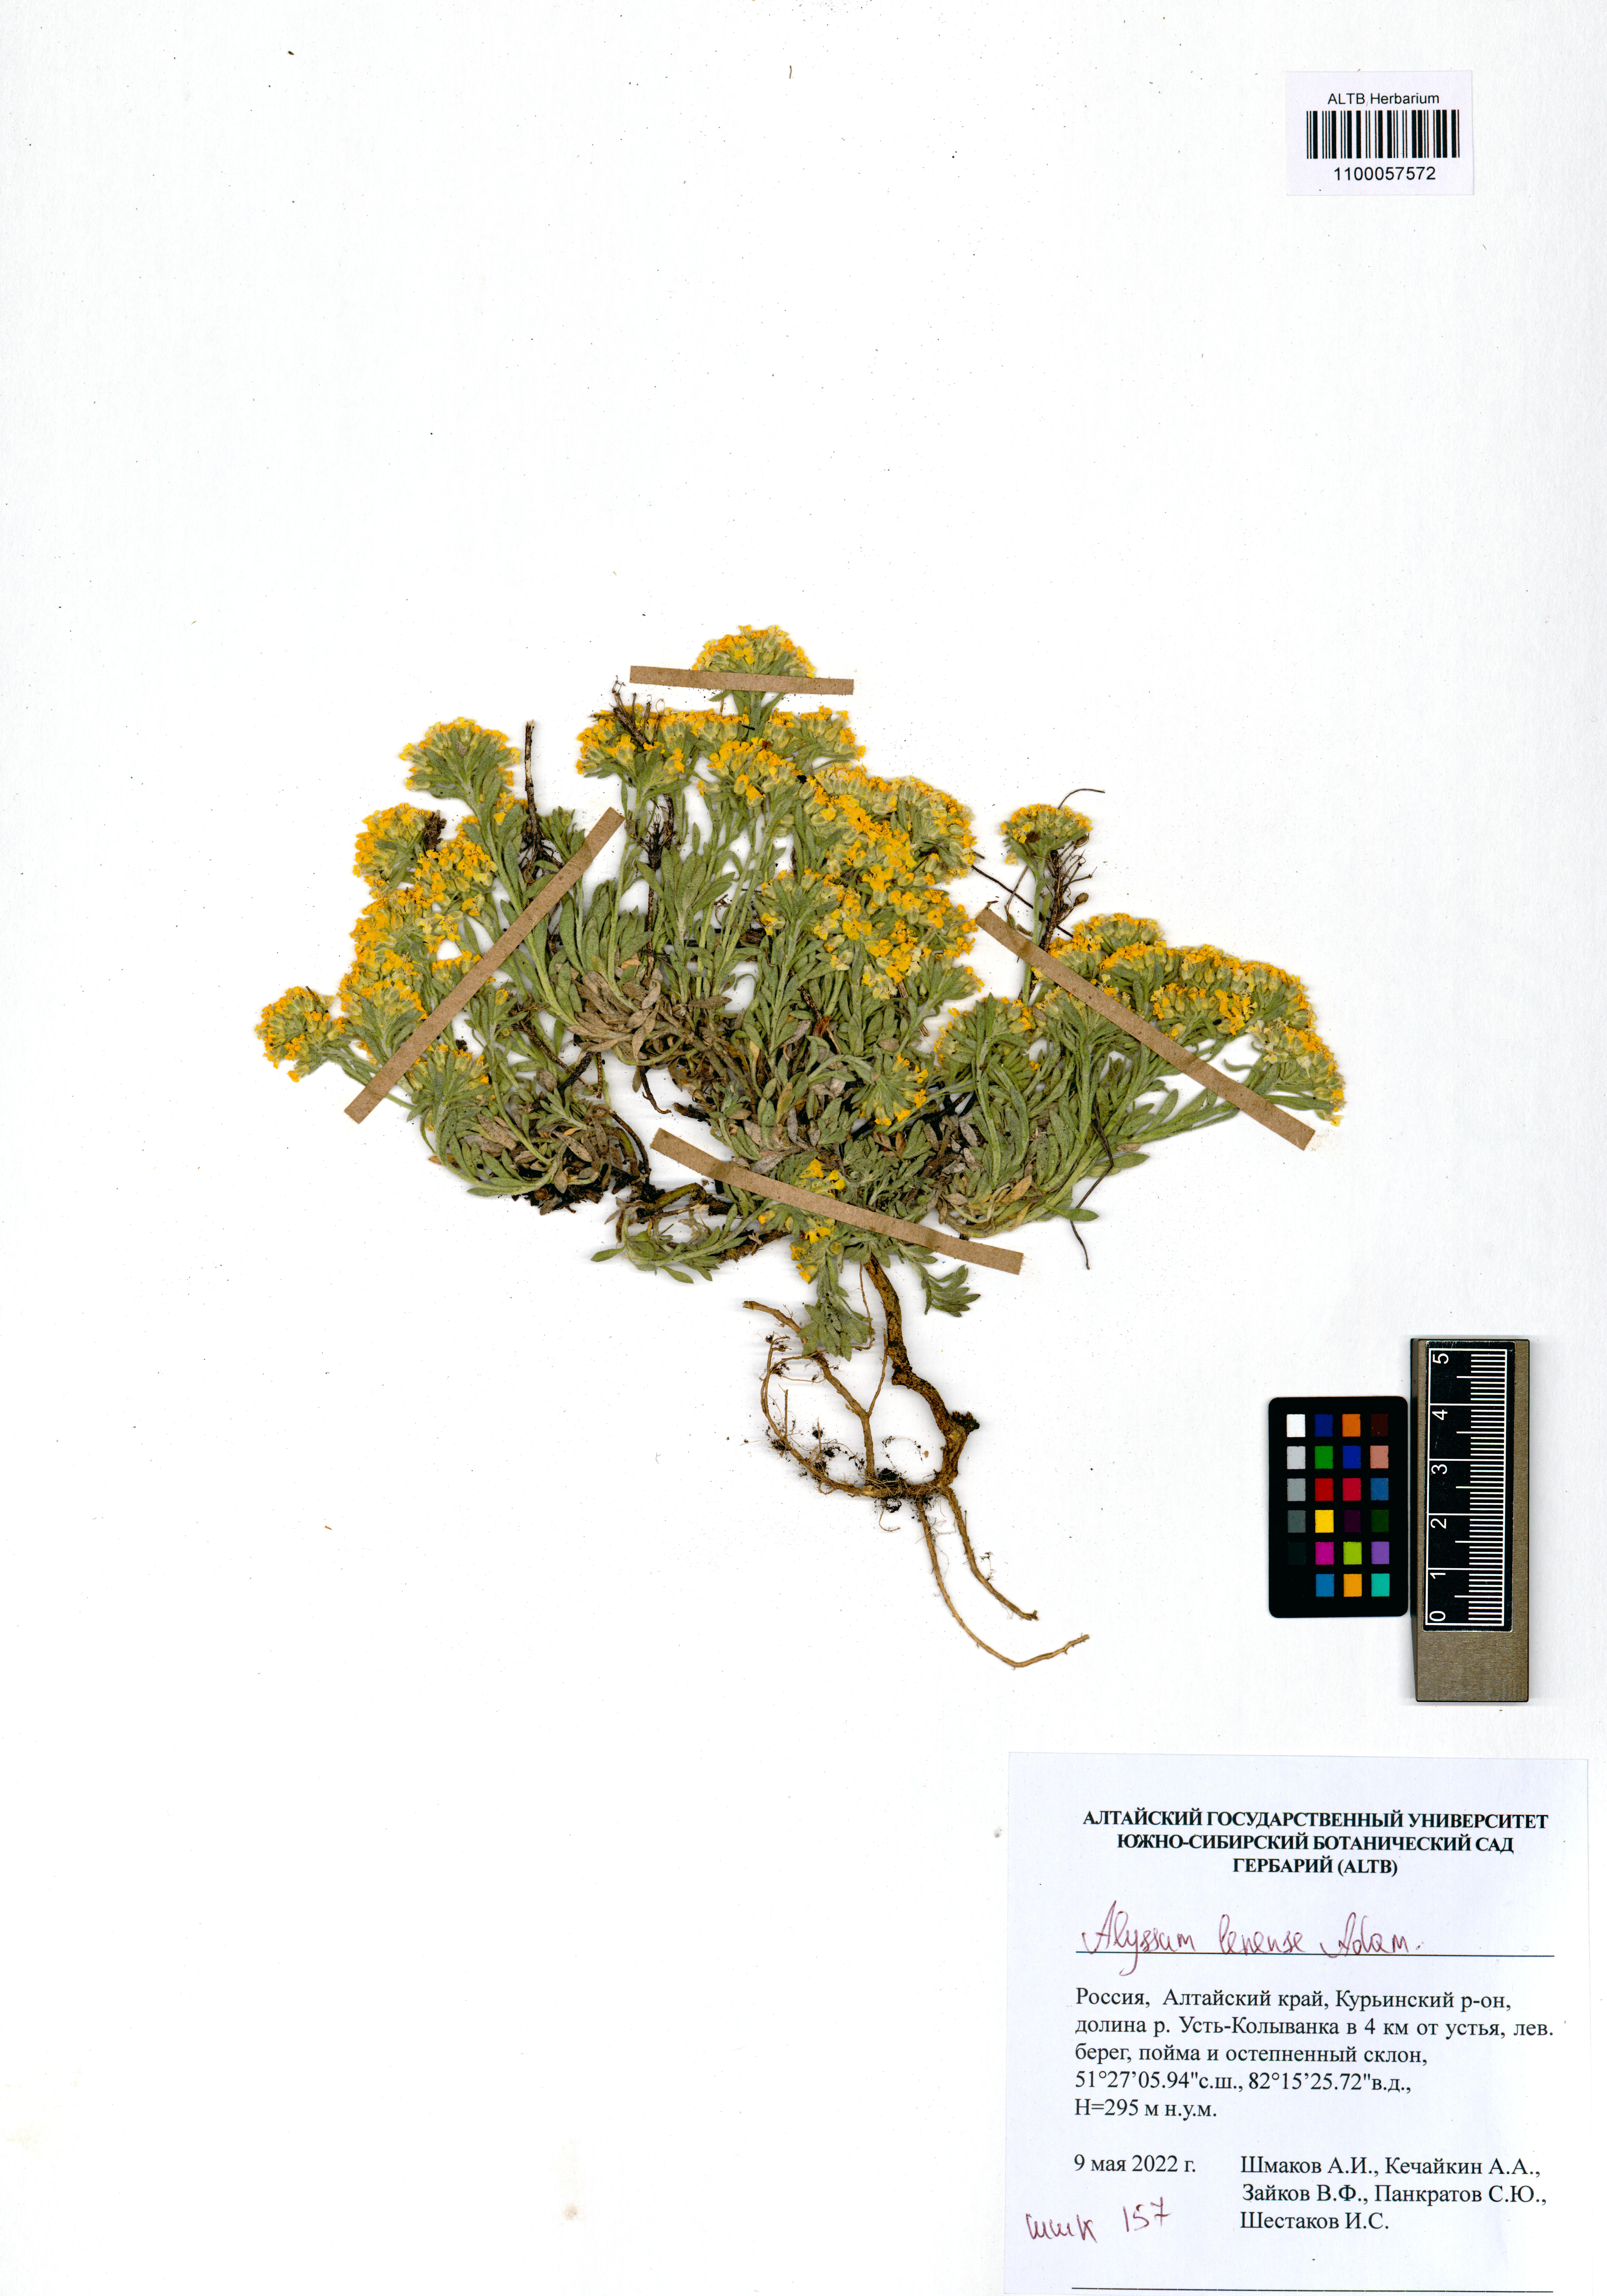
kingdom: Plantae
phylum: Tracheophyta
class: Magnoliopsida
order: Brassicales
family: Brassicaceae
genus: Alyssum
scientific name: Alyssum lenense
